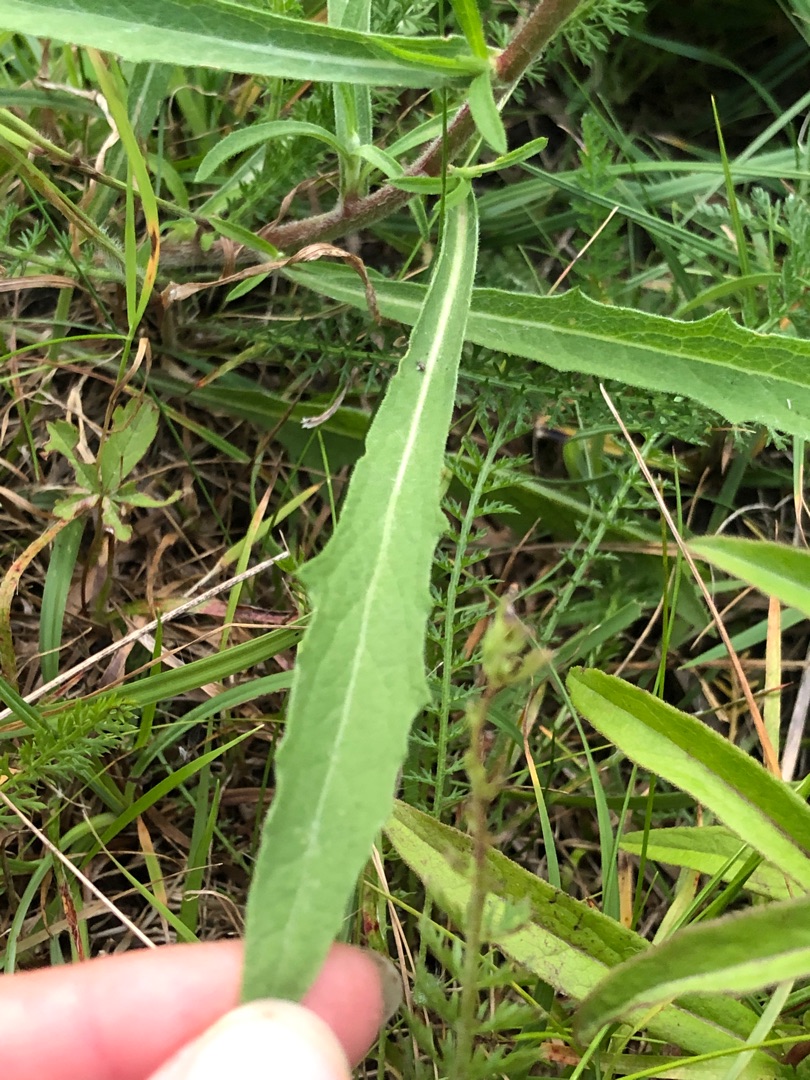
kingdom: Plantae
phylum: Tracheophyta
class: Magnoliopsida
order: Asterales
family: Asteraceae
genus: Centaurea
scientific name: Centaurea jacea
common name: Almindelig knopurt
